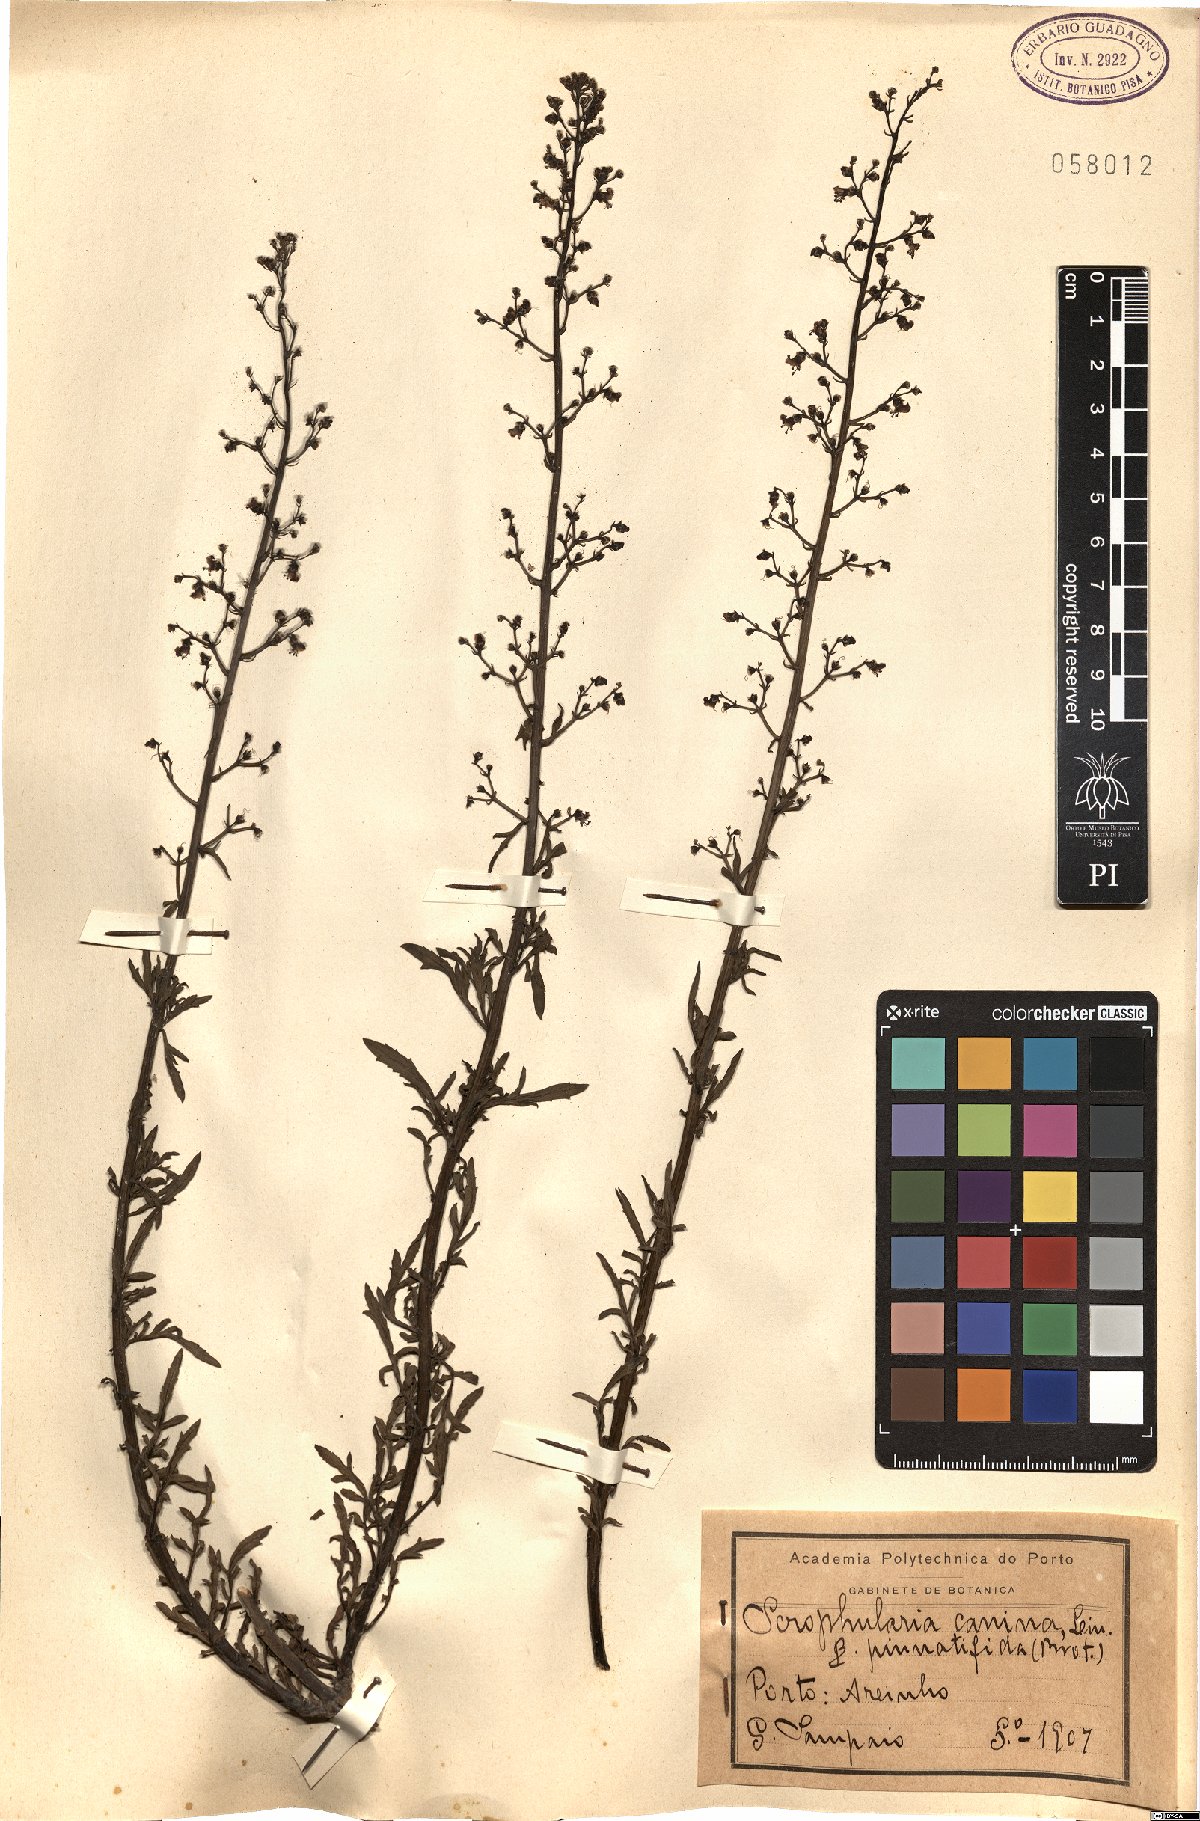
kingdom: Plantae
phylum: Tracheophyta
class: Magnoliopsida
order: Lamiales
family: Scrophulariaceae
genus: Scrophularia
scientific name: Scrophularia canina
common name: French figwort
